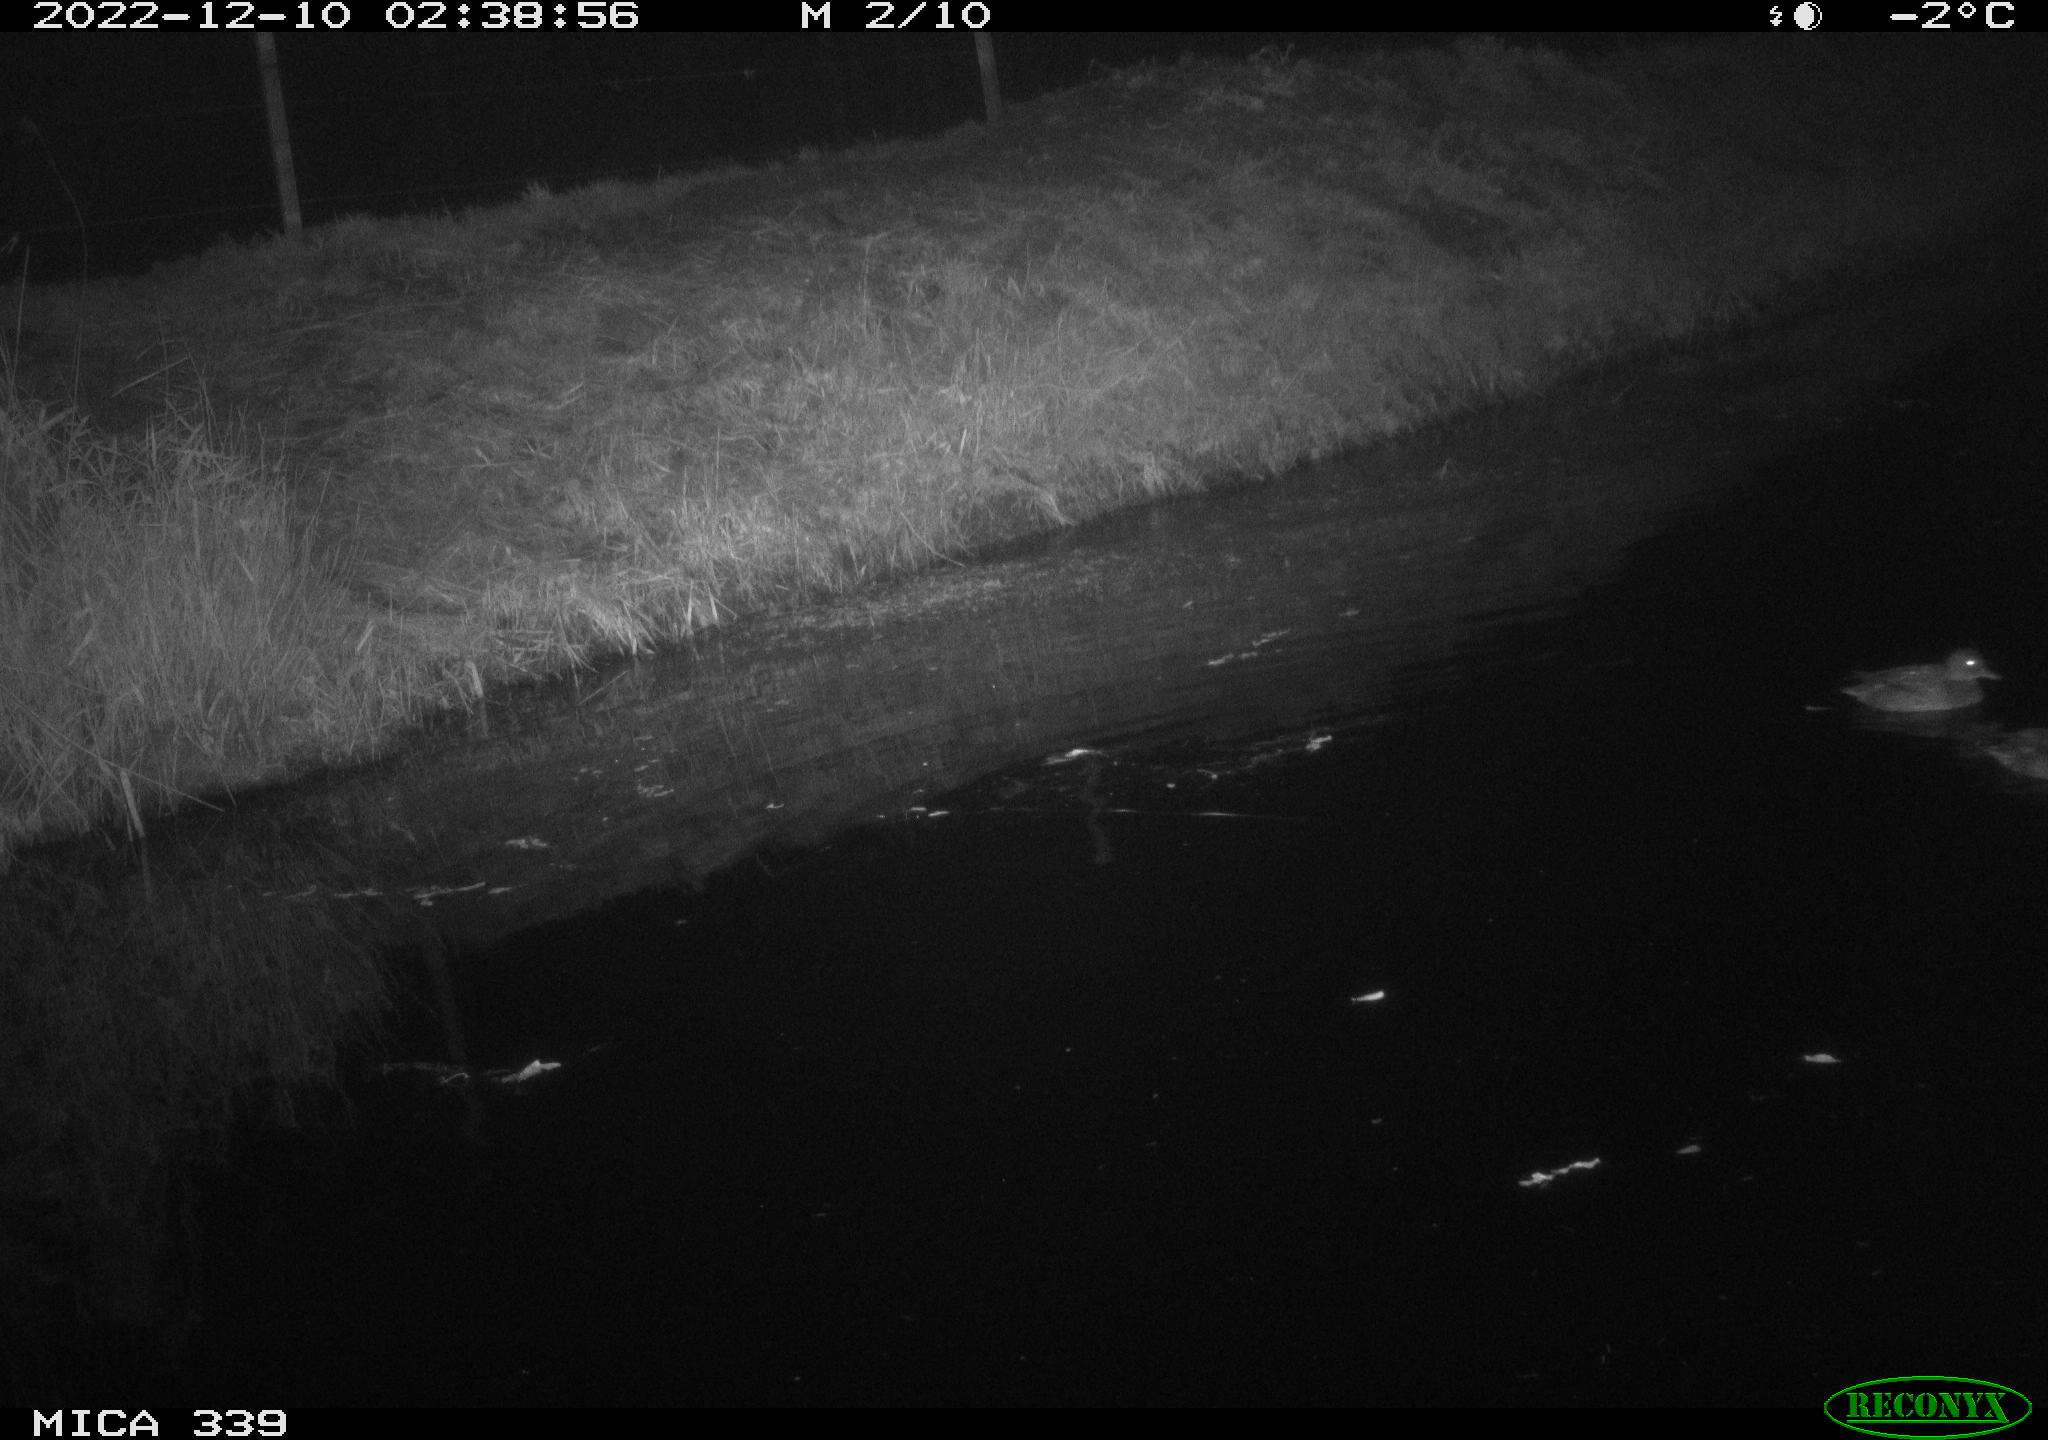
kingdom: Animalia
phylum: Chordata
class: Aves
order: Anseriformes
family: Anatidae
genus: Anas
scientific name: Anas
